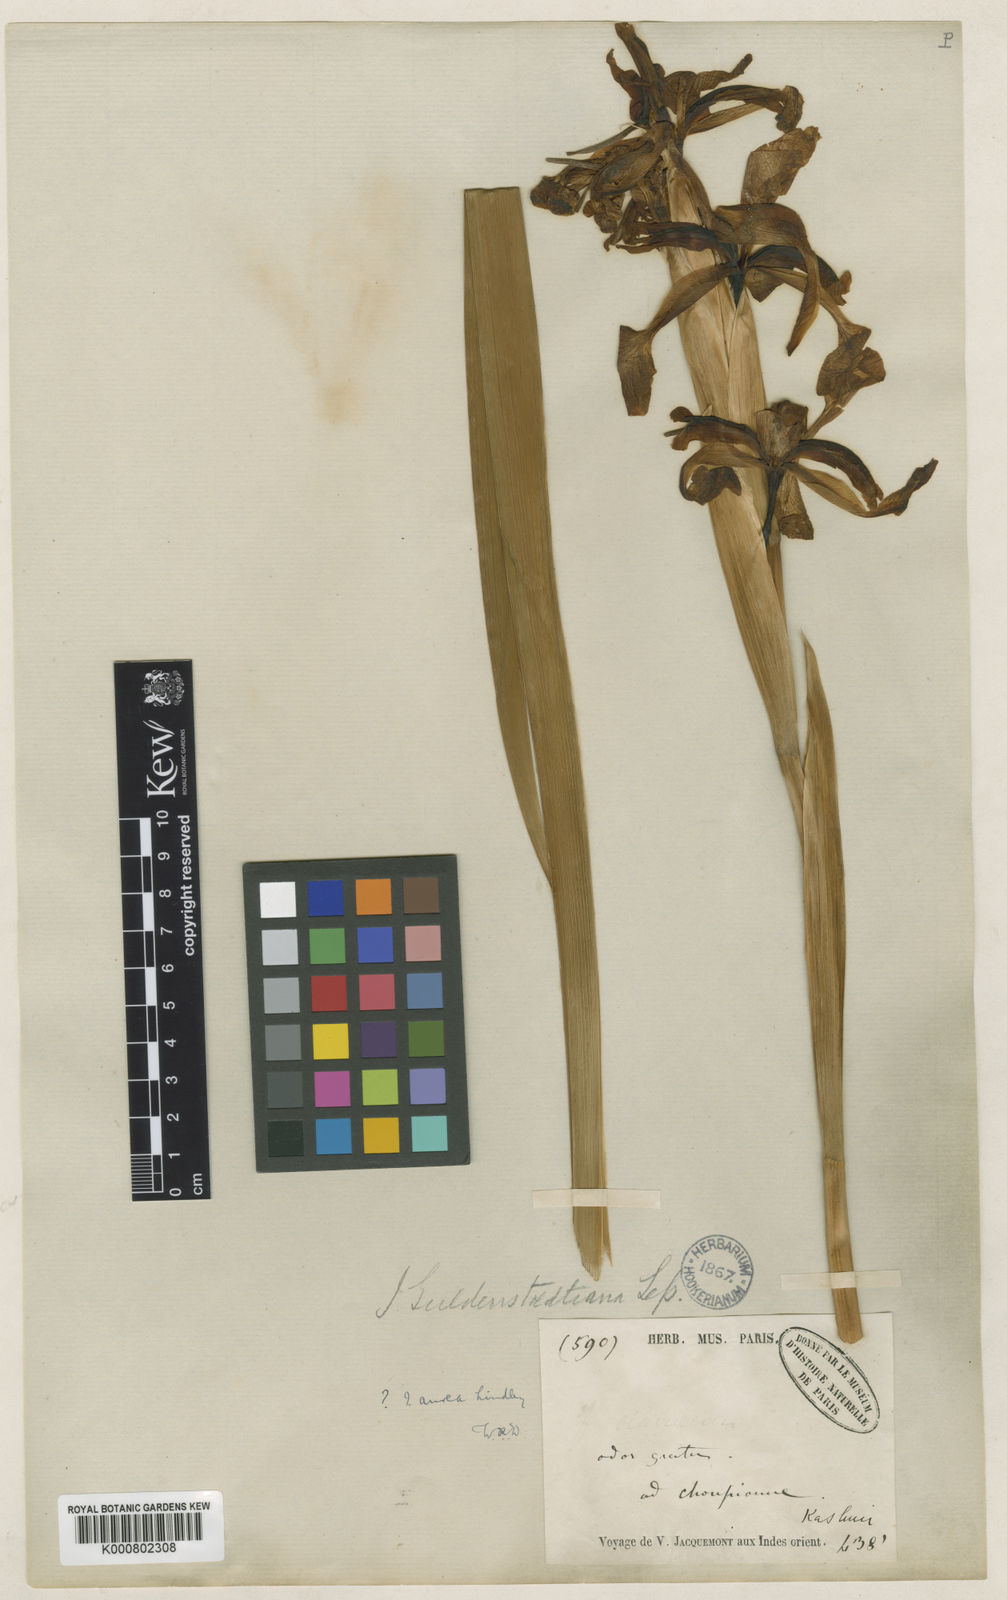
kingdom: Plantae
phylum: Tracheophyta
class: Liliopsida
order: Asparagales
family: Iridaceae
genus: Iris
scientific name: Iris halophila
